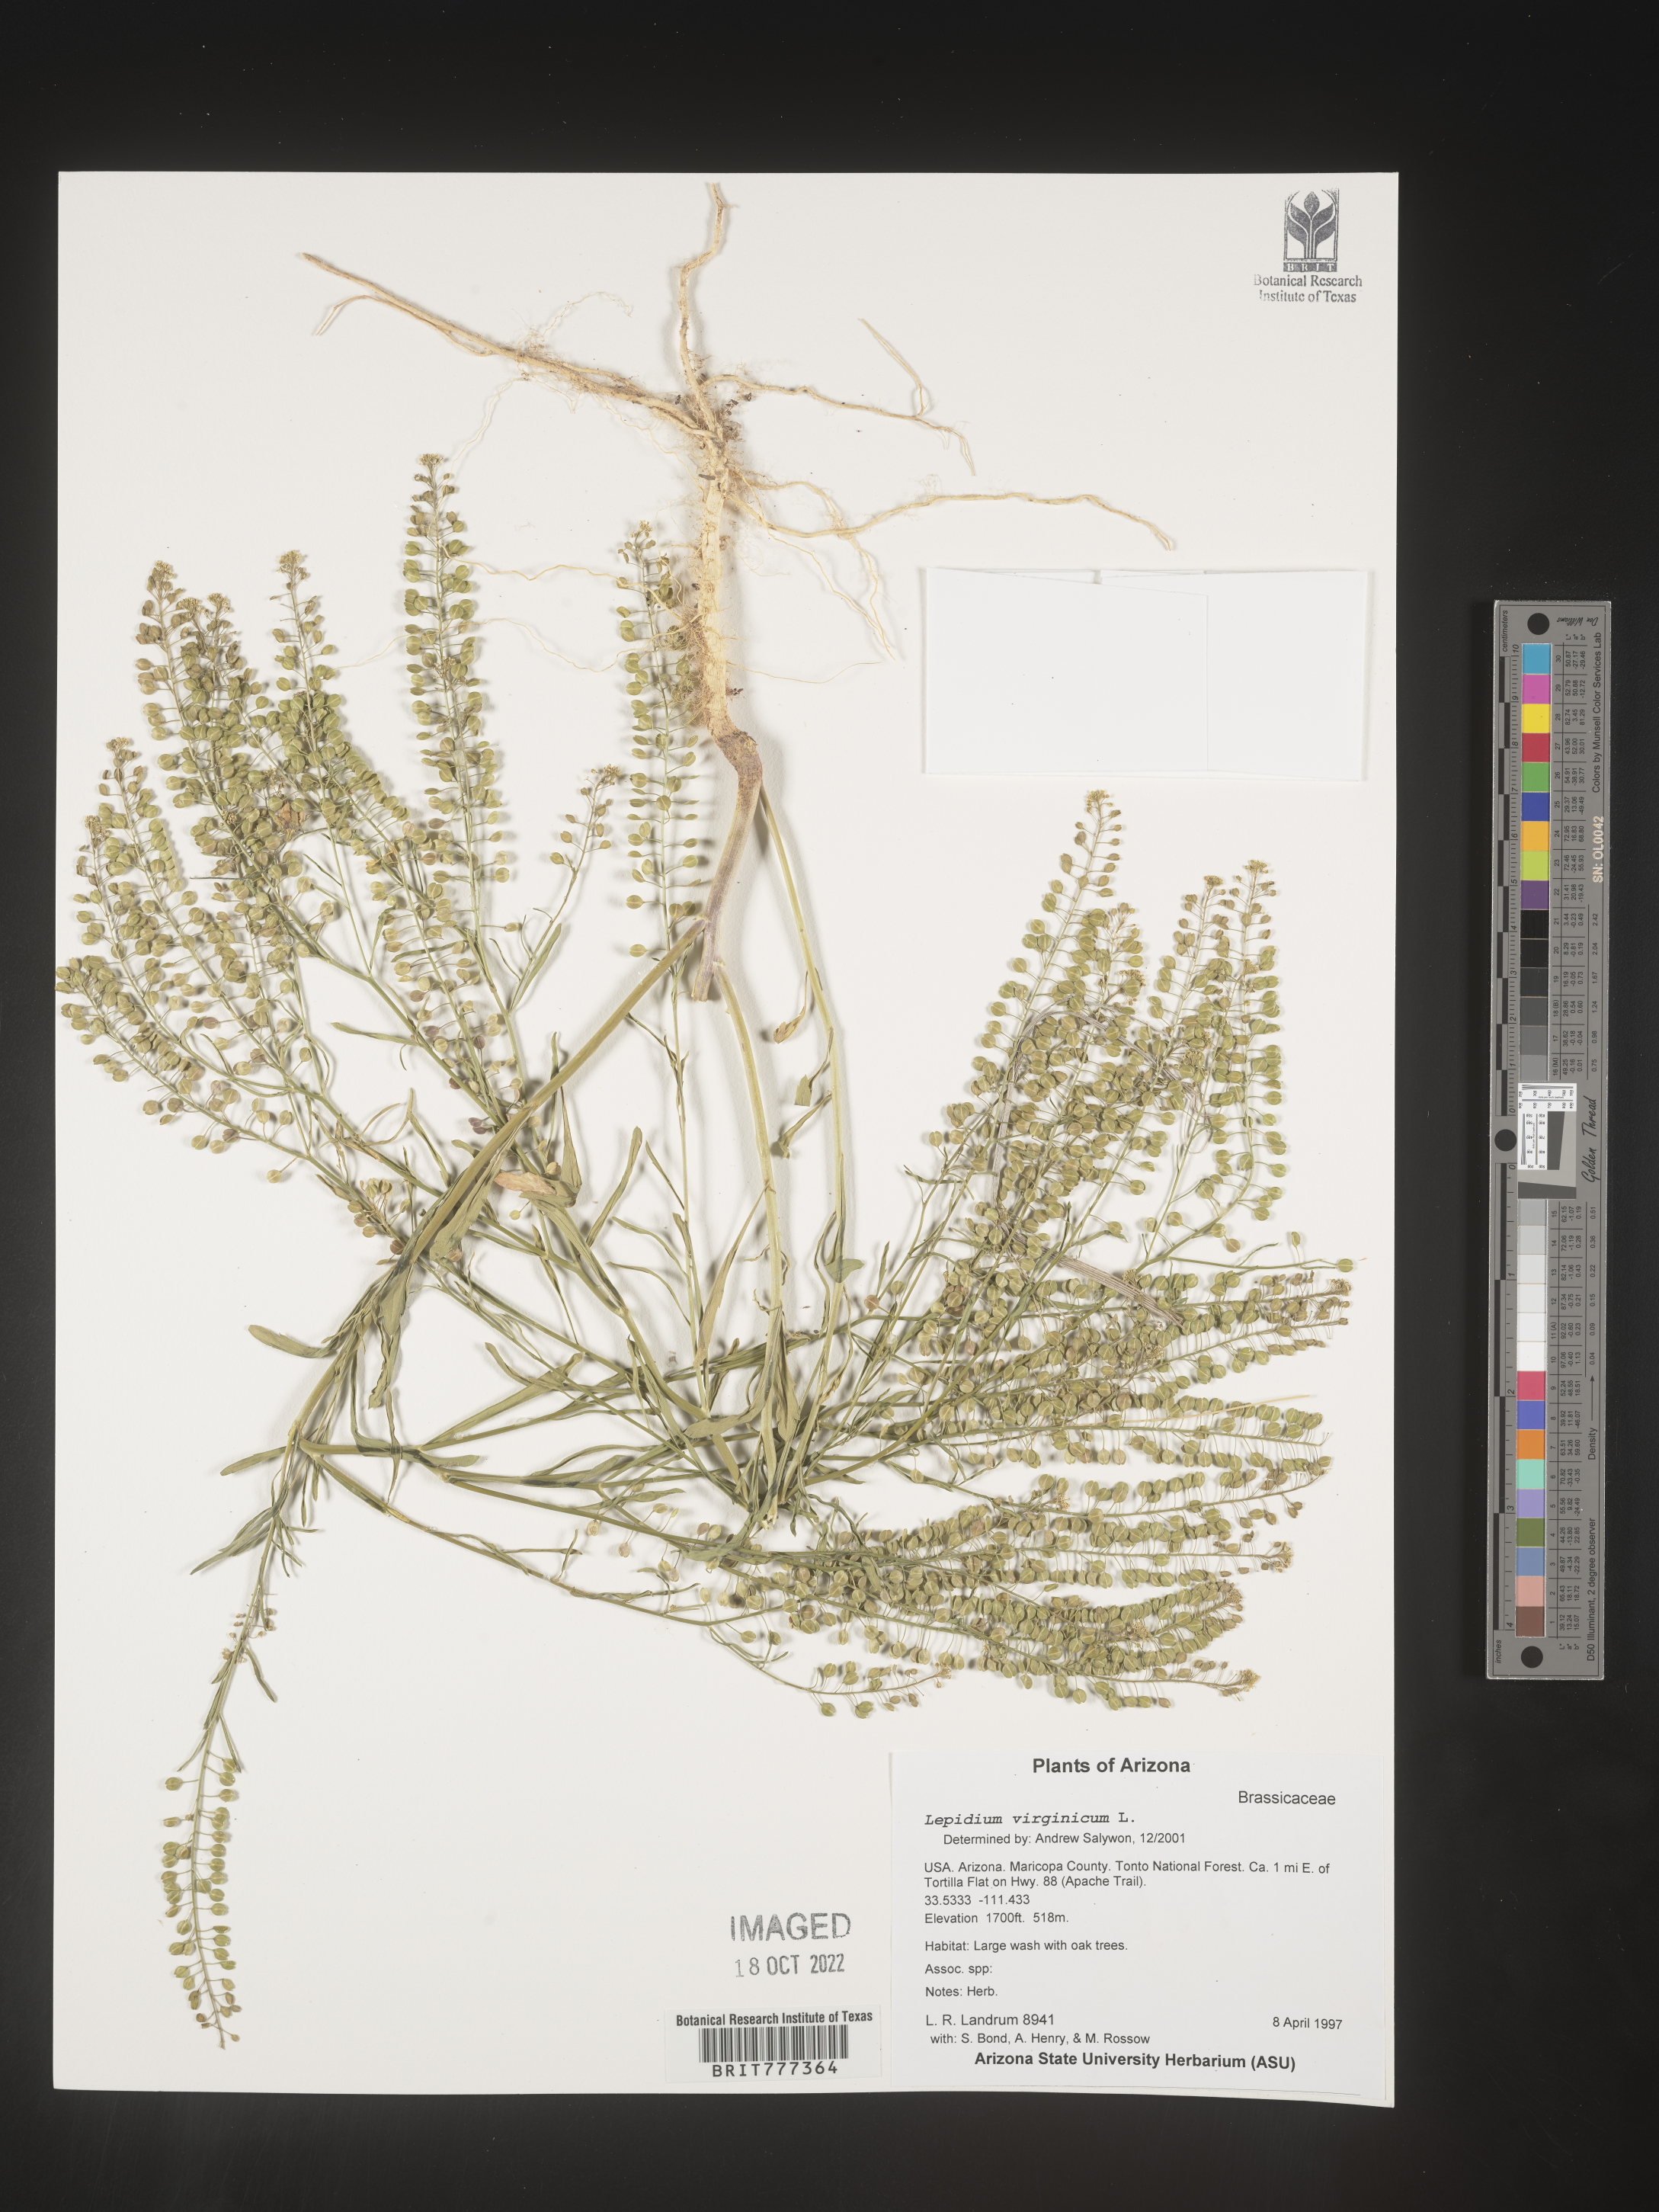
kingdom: Plantae
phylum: Tracheophyta
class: Magnoliopsida
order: Brassicales
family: Brassicaceae
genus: Lepidium
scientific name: Lepidium virginicum
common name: Least pepperwort
